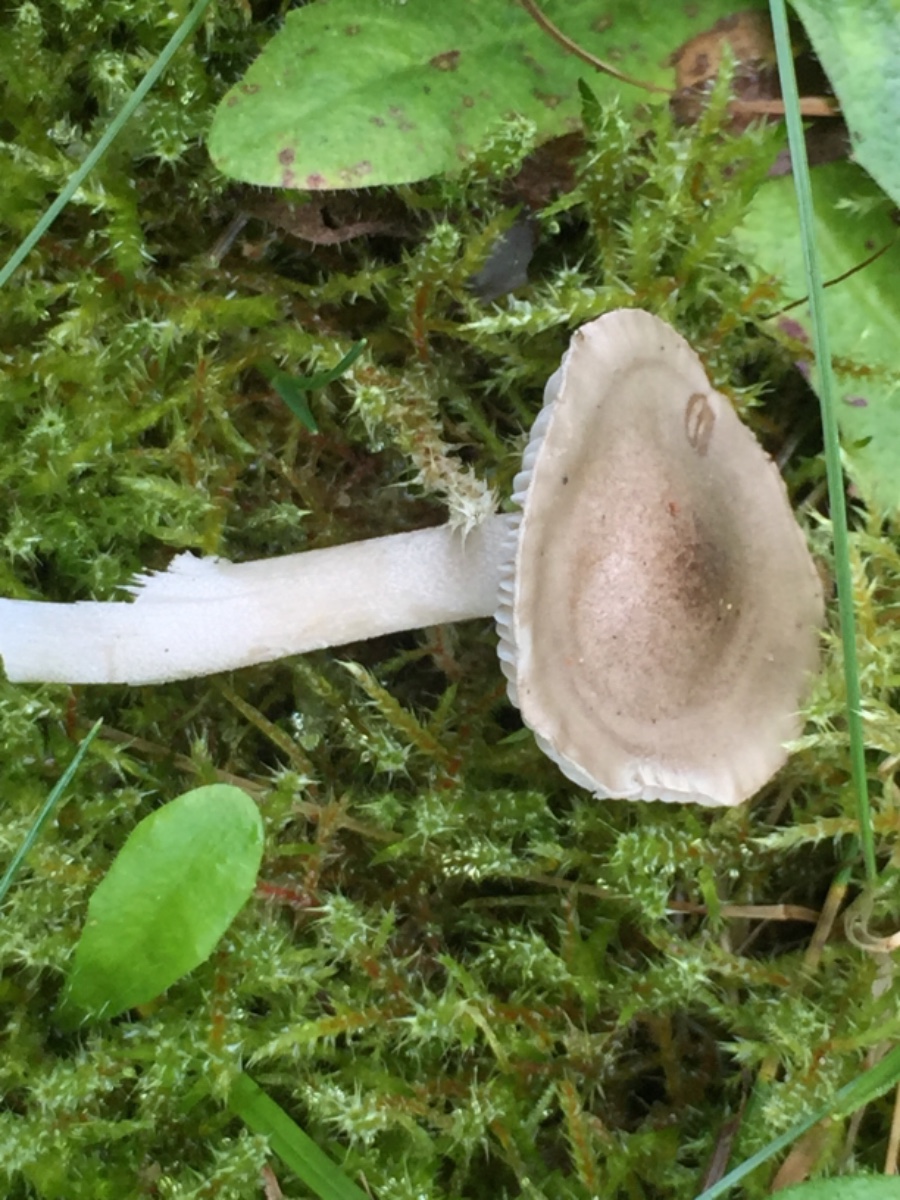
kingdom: Fungi
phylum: Basidiomycota
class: Agaricomycetes
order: Agaricales
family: Hygrophoraceae
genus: Hygrophorus
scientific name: Hygrophorus agathosmus
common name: vellugtende sneglehat
